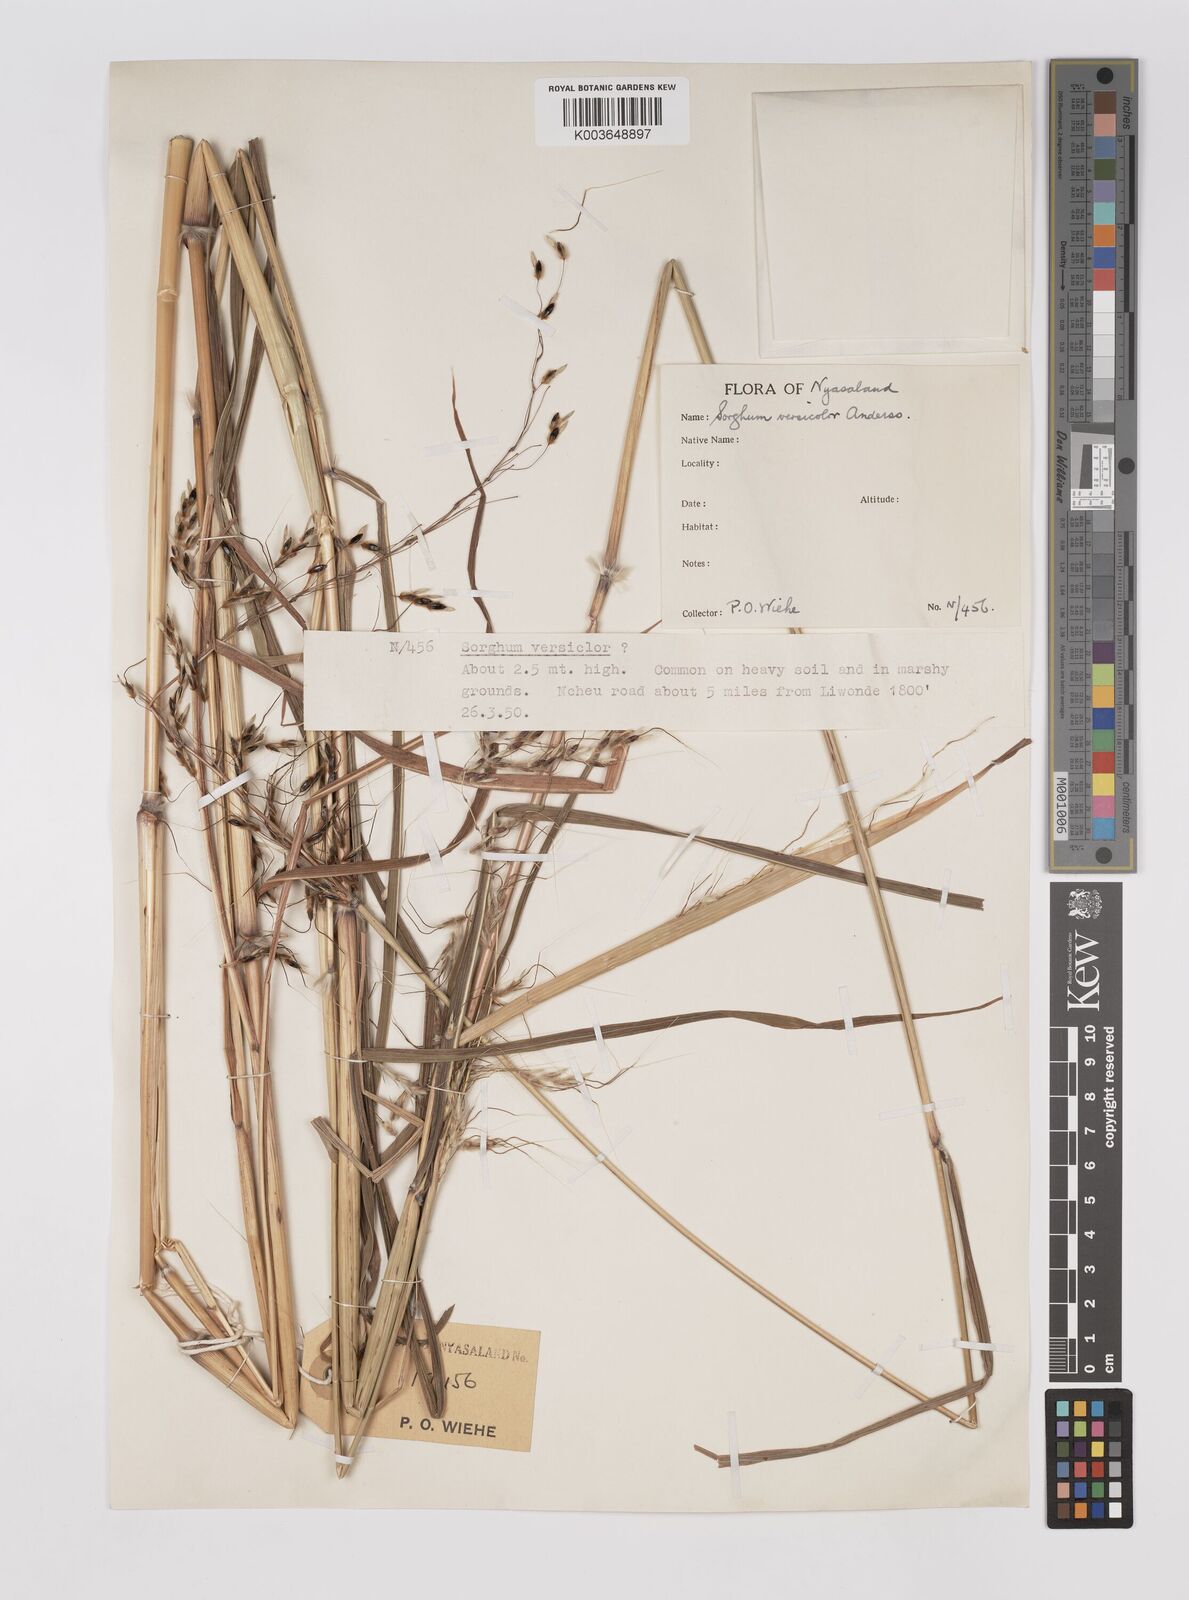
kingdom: Plantae
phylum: Tracheophyta
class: Liliopsida
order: Poales
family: Poaceae
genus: Sarga
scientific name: Sarga versicolor
